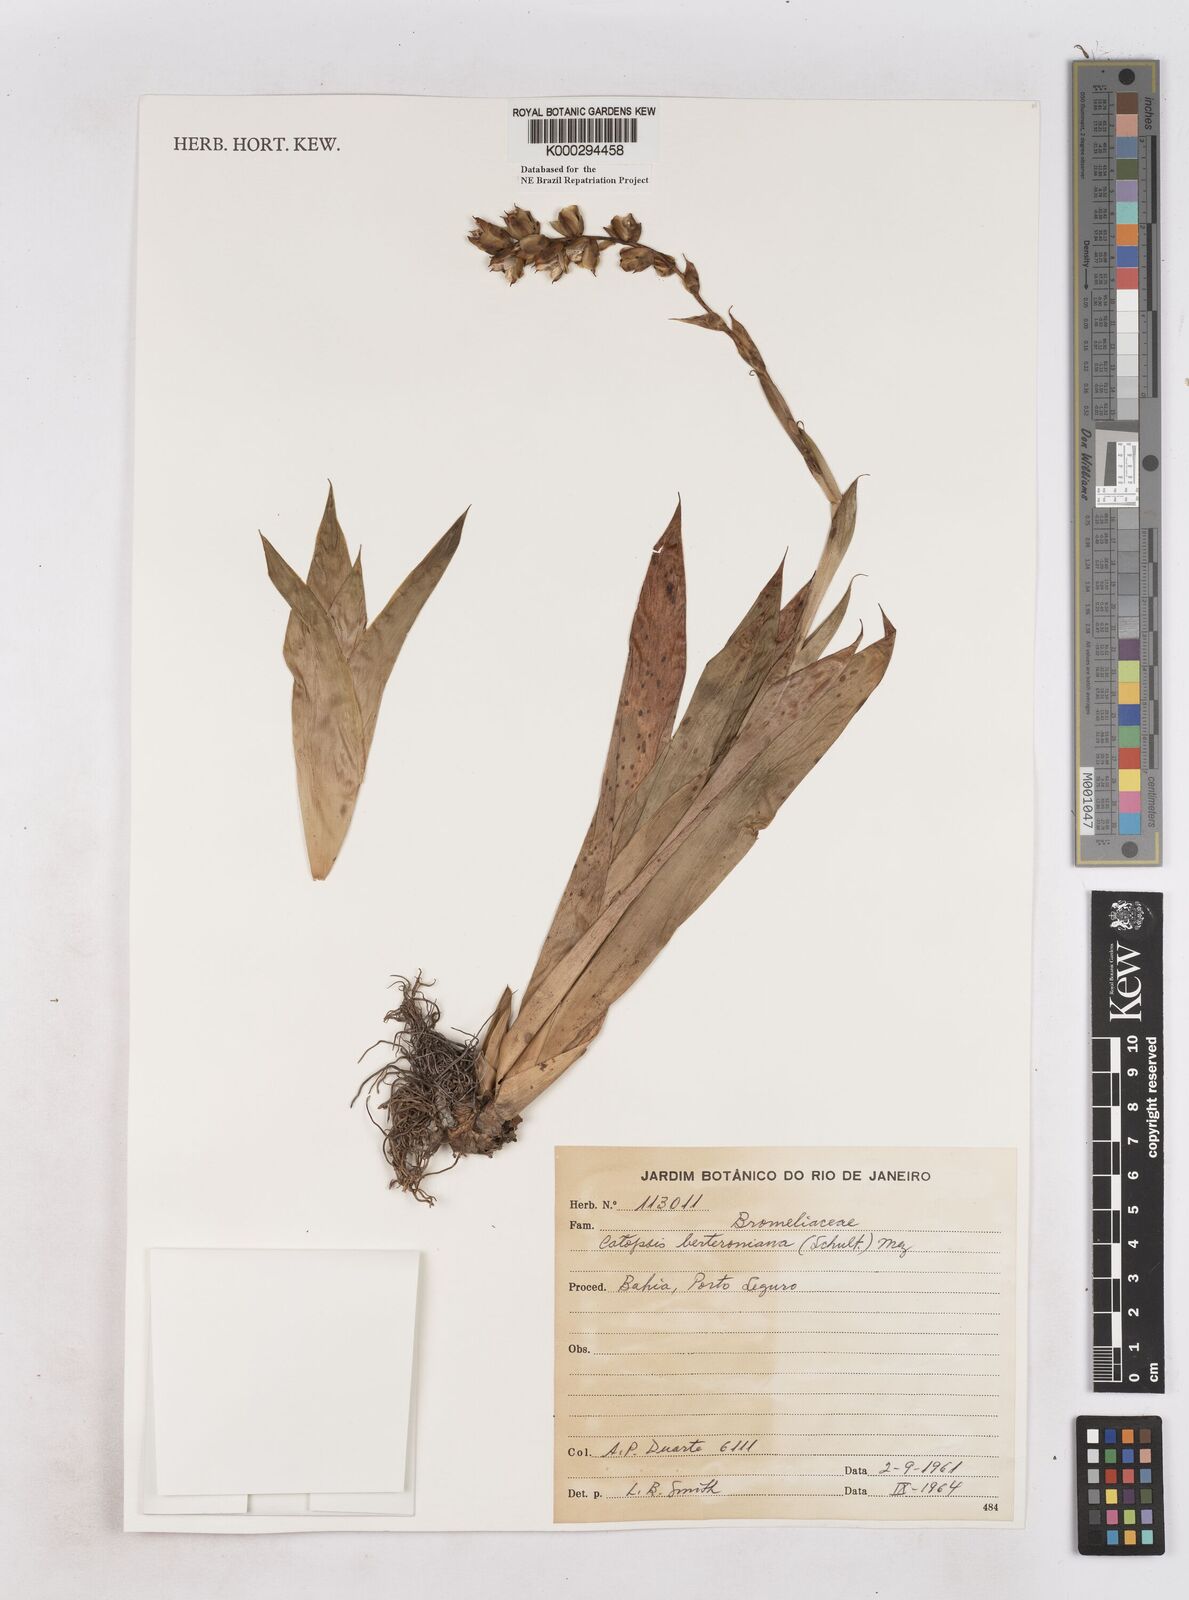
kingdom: Plantae
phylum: Tracheophyta
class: Liliopsida
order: Poales
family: Bromeliaceae
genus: Catopsis
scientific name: Catopsis berteroniana
